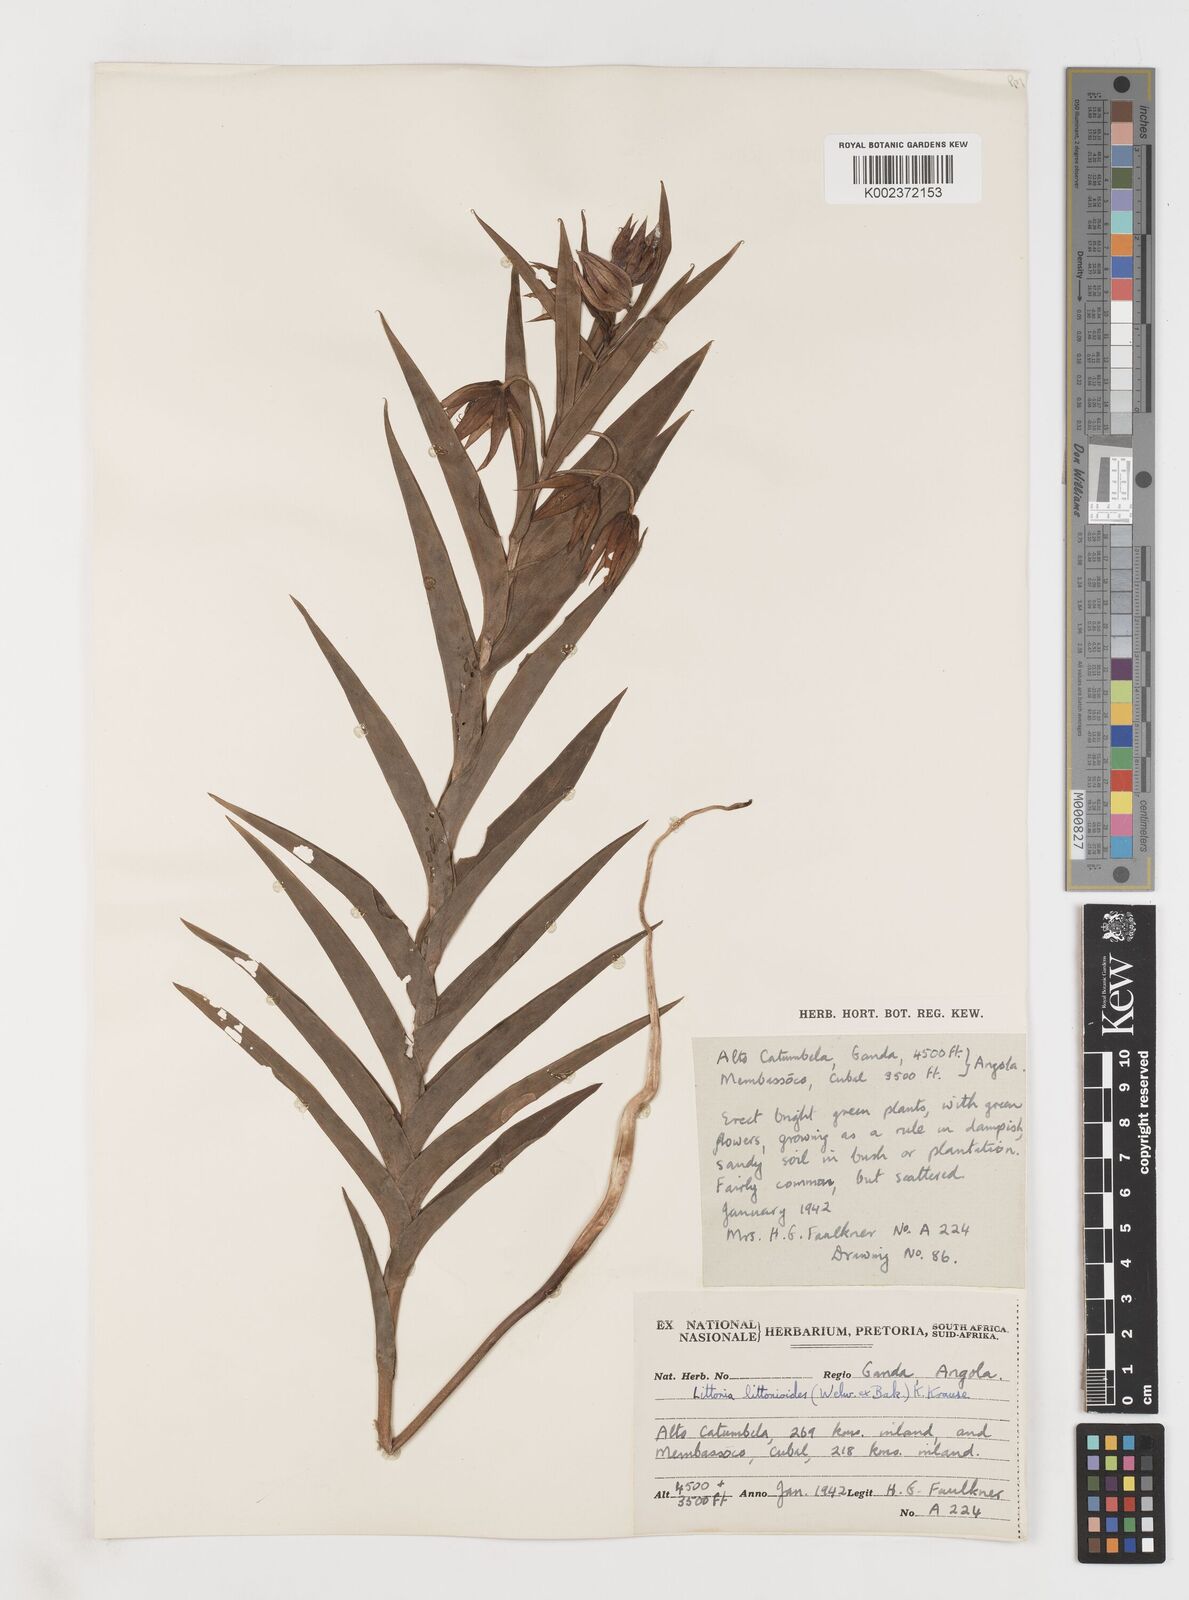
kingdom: Plantae
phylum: Tracheophyta
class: Liliopsida
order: Liliales
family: Colchicaceae
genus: Gloriosa
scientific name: Gloriosa littonioides
